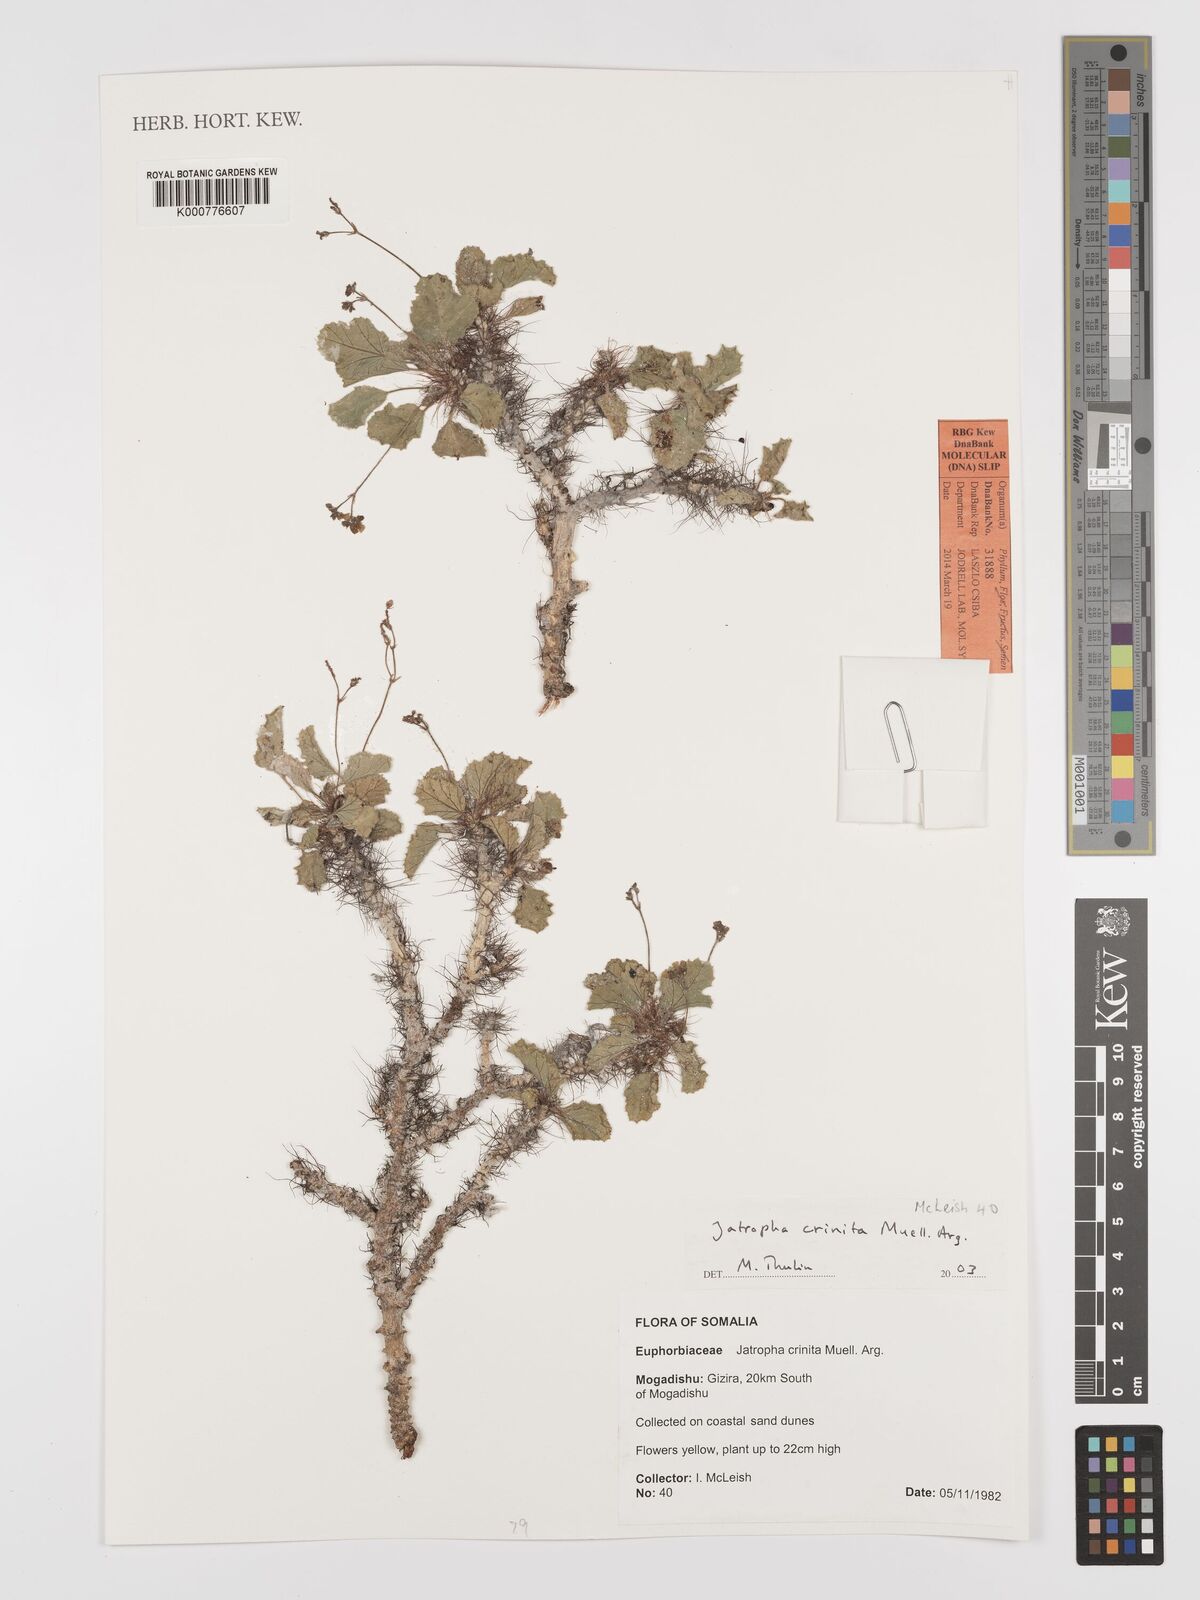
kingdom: Plantae
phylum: Tracheophyta
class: Magnoliopsida
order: Malpighiales
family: Euphorbiaceae
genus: Jatropha
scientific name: Jatropha
